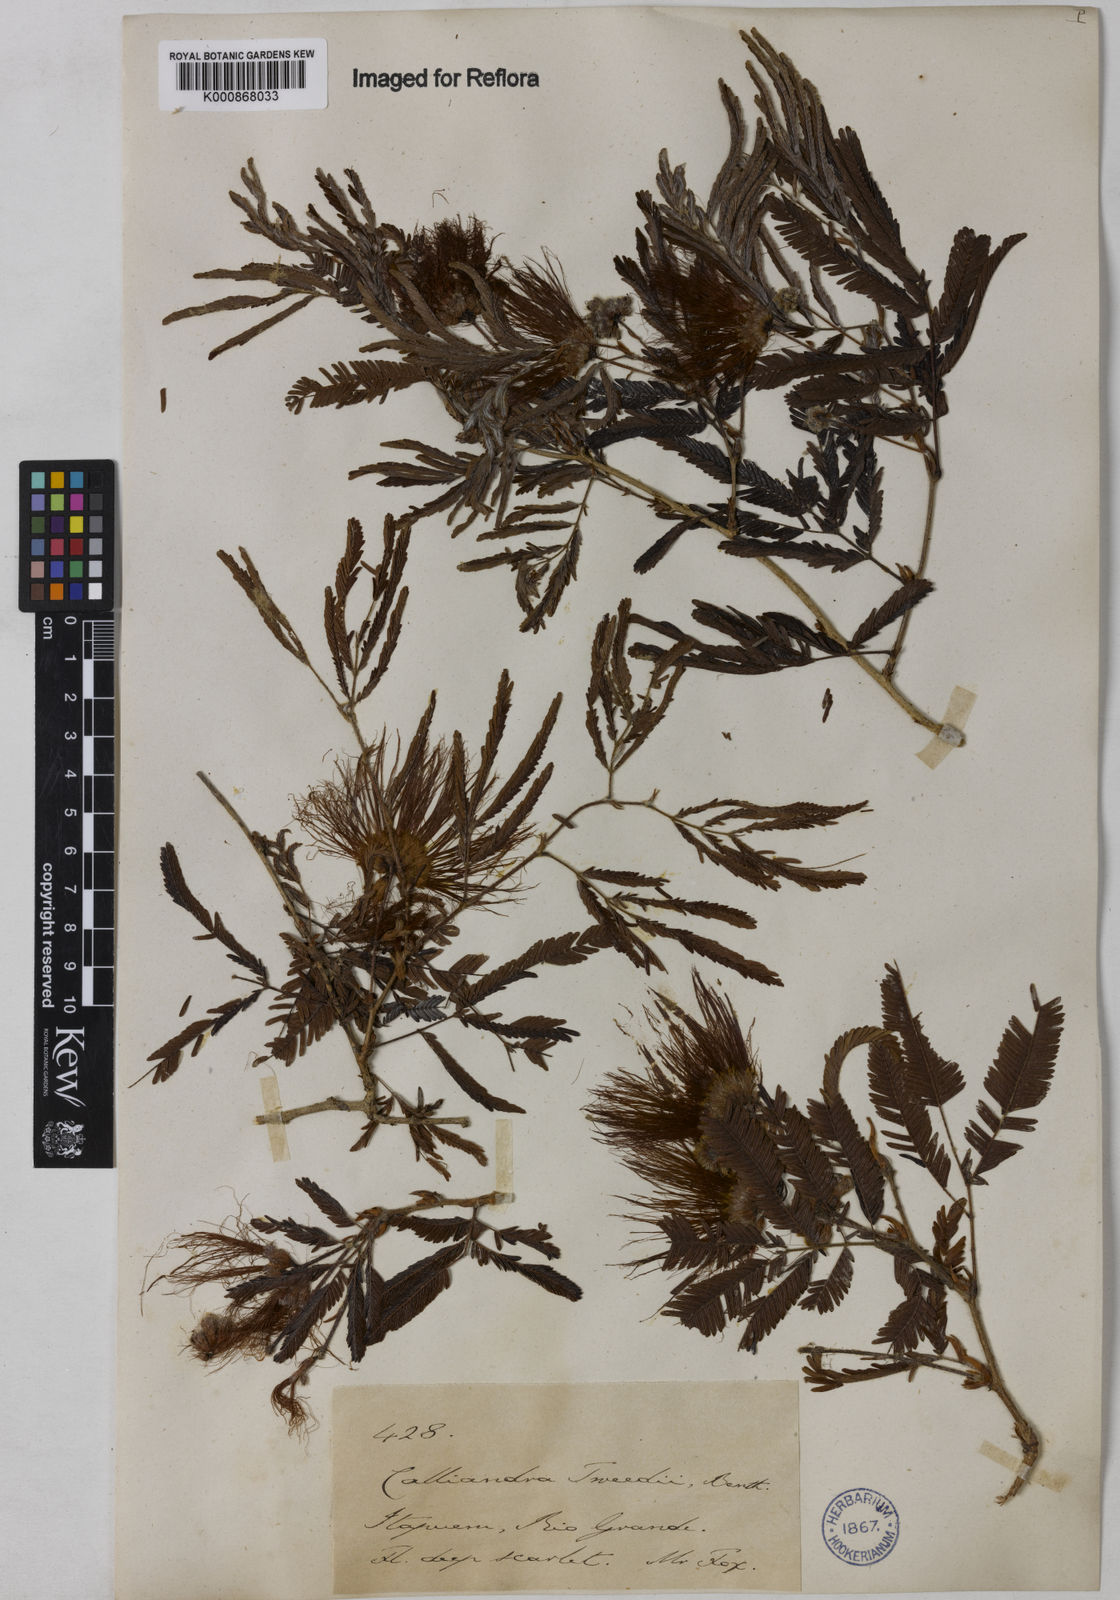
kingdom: Plantae
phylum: Tracheophyta
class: Magnoliopsida
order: Fabales
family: Fabaceae
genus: Calliandra
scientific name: Calliandra tweediei
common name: Mexican flamebush
